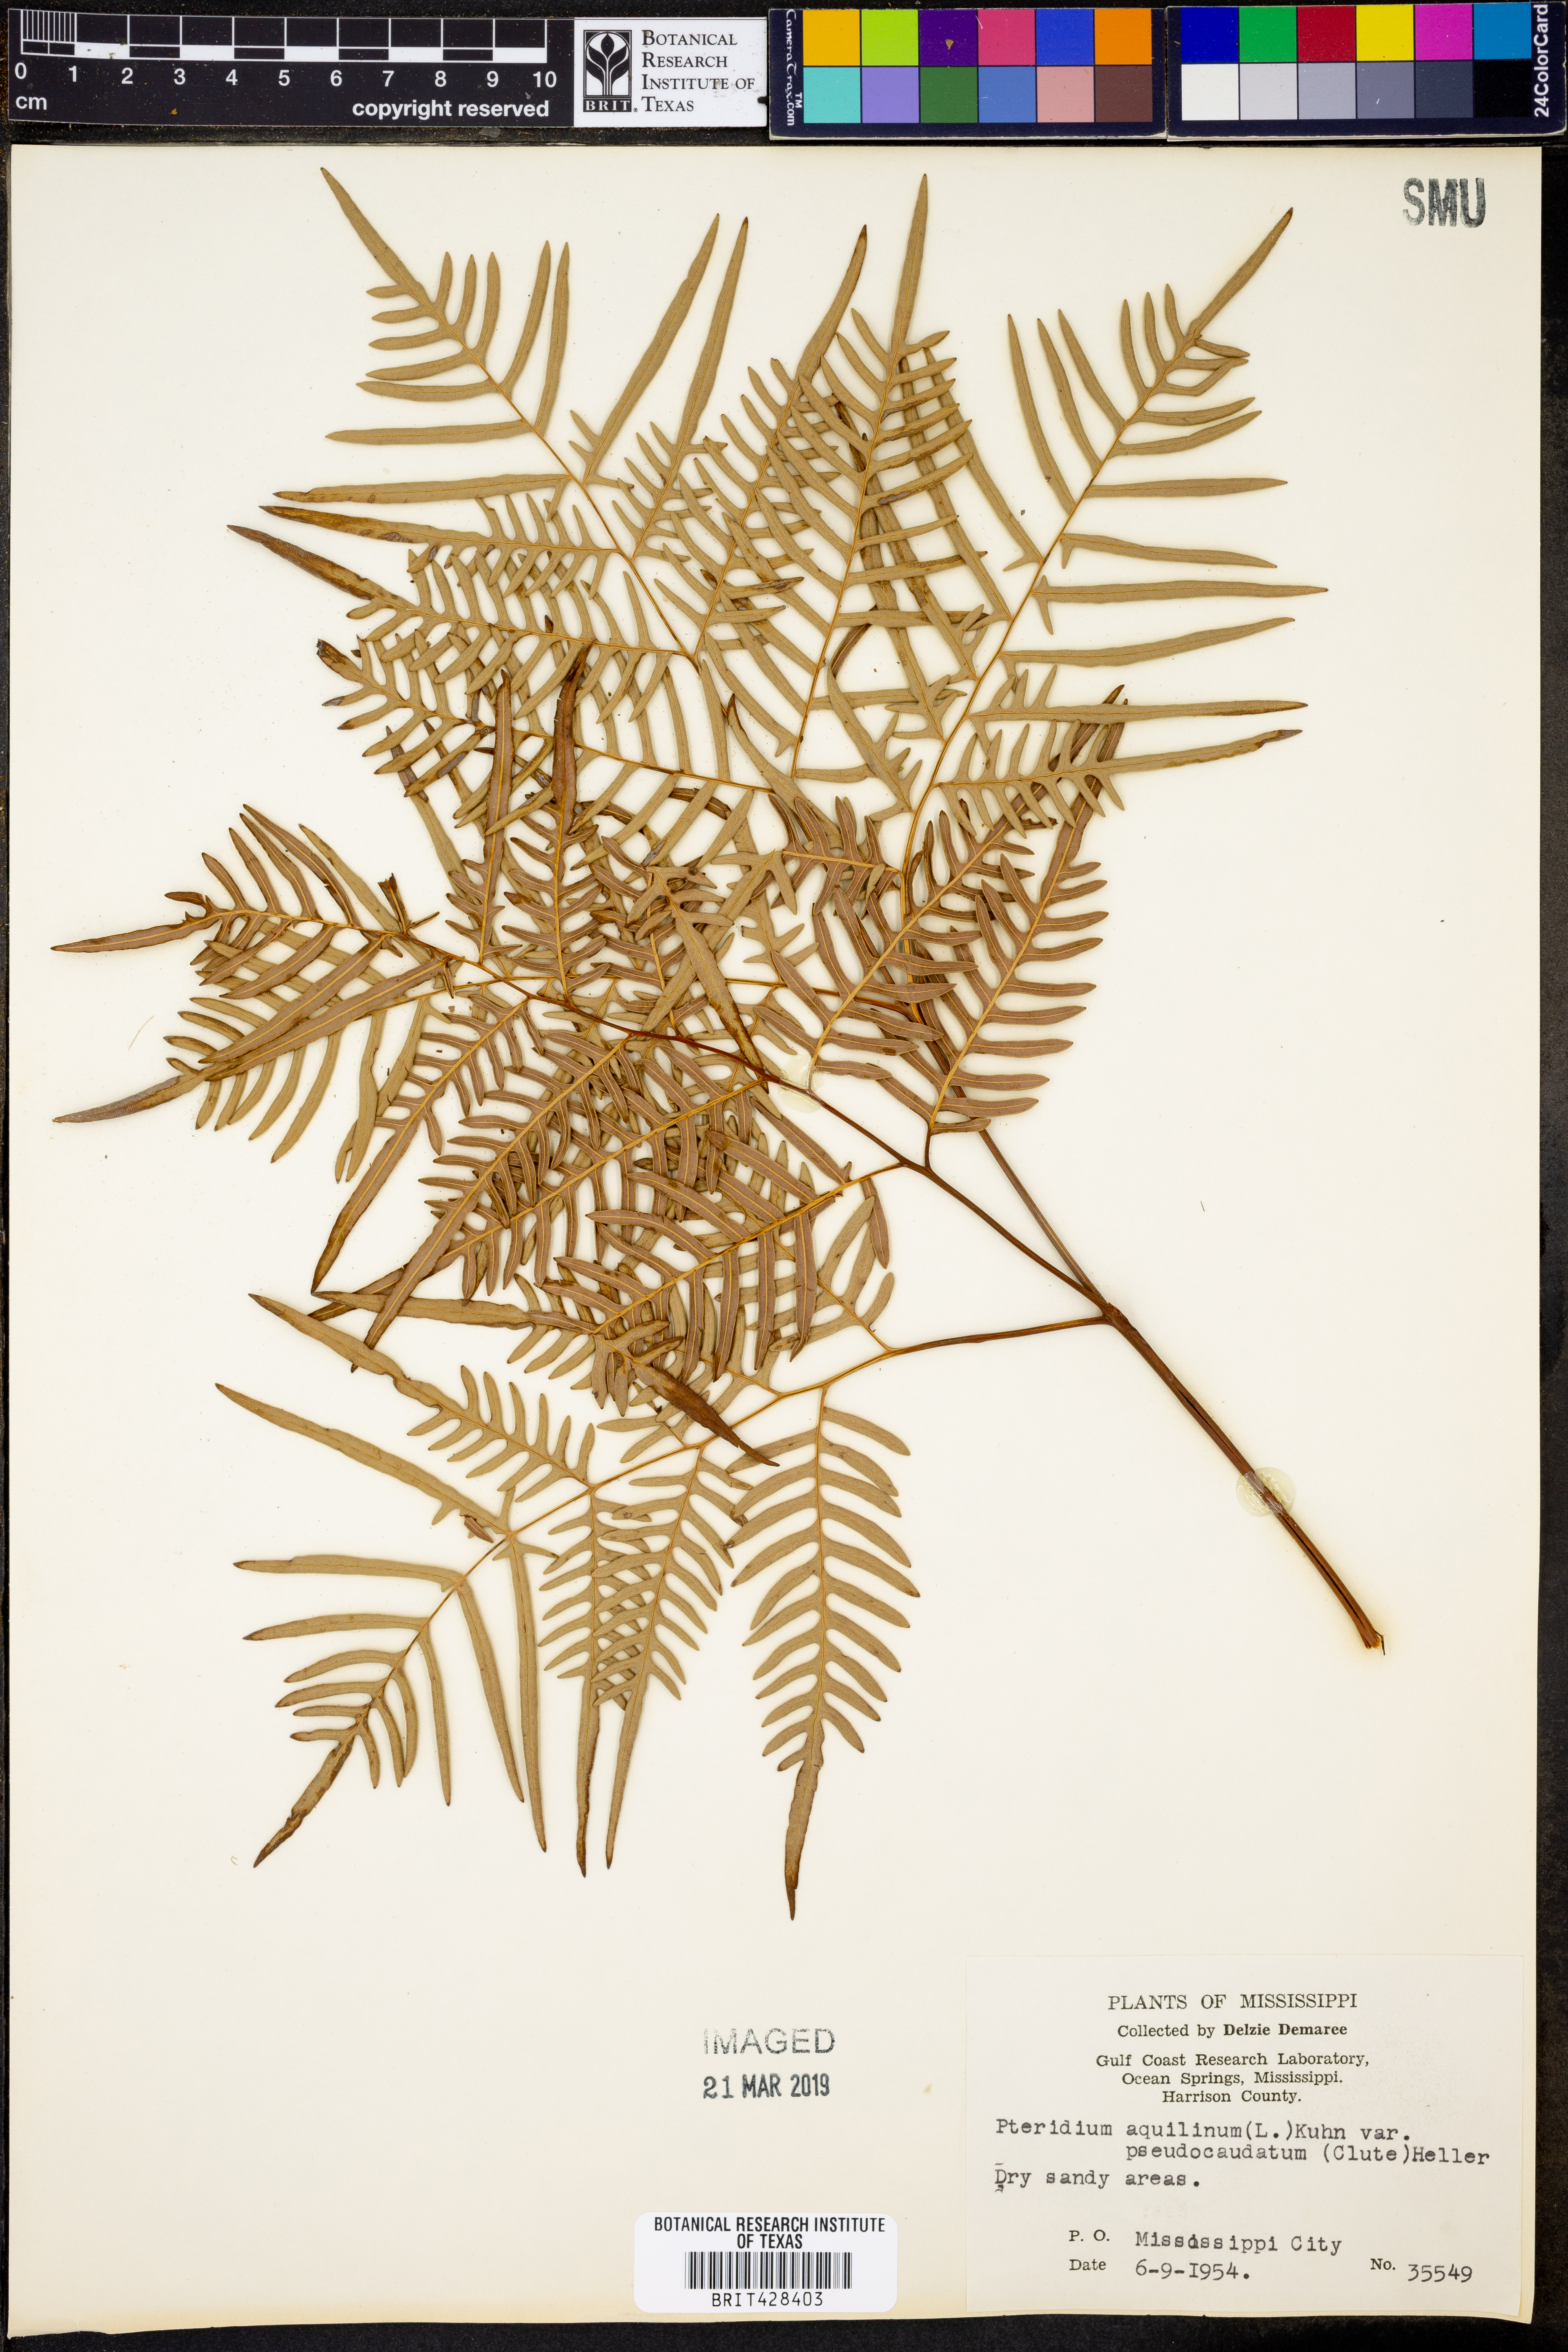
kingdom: Plantae
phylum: Tracheophyta
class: Polypodiopsida
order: Polypodiales
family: Dennstaedtiaceae
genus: Pteridium
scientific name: Pteridium aquilinum
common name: Bracken
